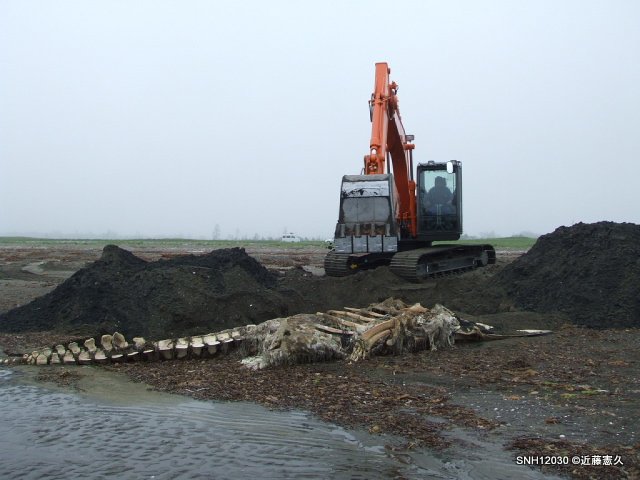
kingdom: Animalia
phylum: Chordata
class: Mammalia
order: Cetacea
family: Balaenopteridae
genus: Balaenoptera
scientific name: Balaenoptera acutorostrata
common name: Minke whale
